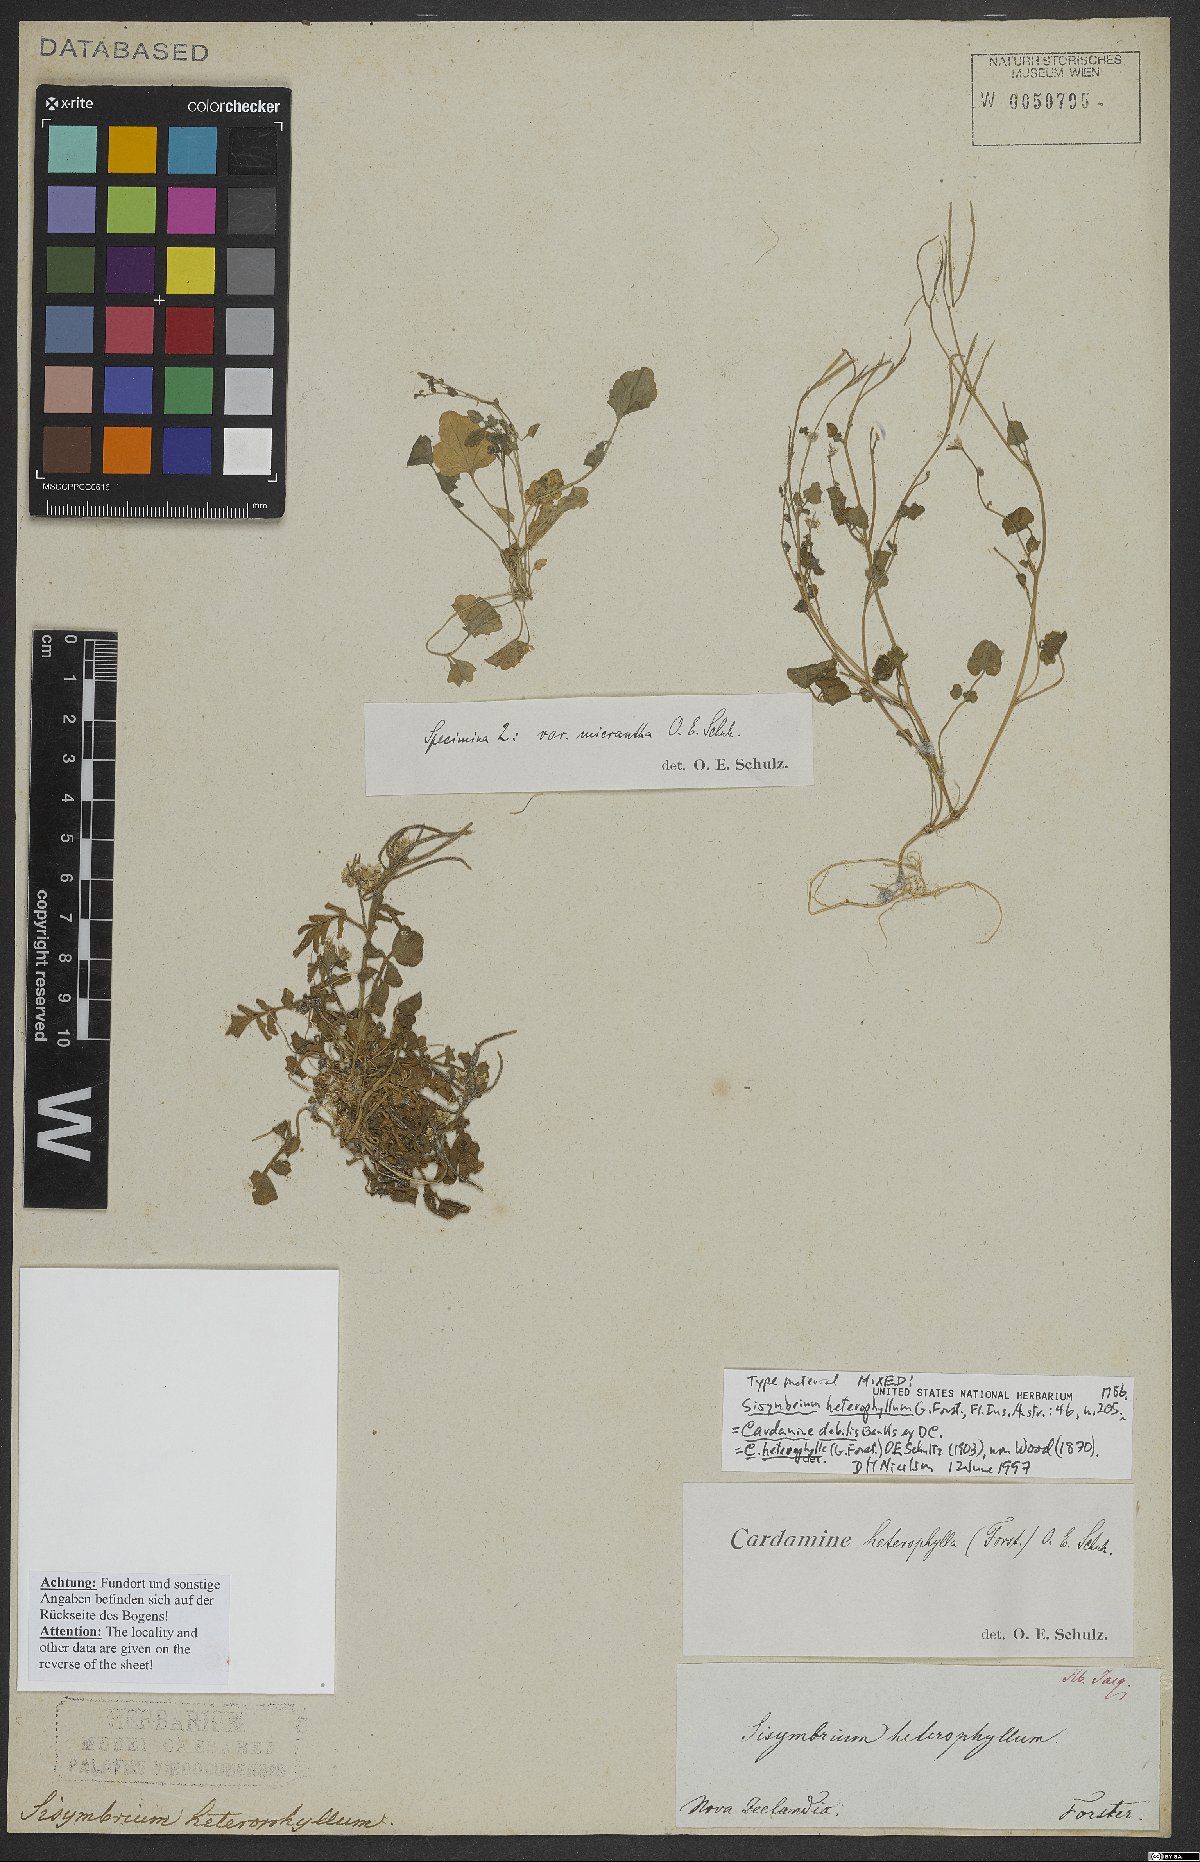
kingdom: Plantae
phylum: Tracheophyta
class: Magnoliopsida
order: Brassicales
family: Brassicaceae
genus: Cardamine
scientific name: Cardamine debilis
